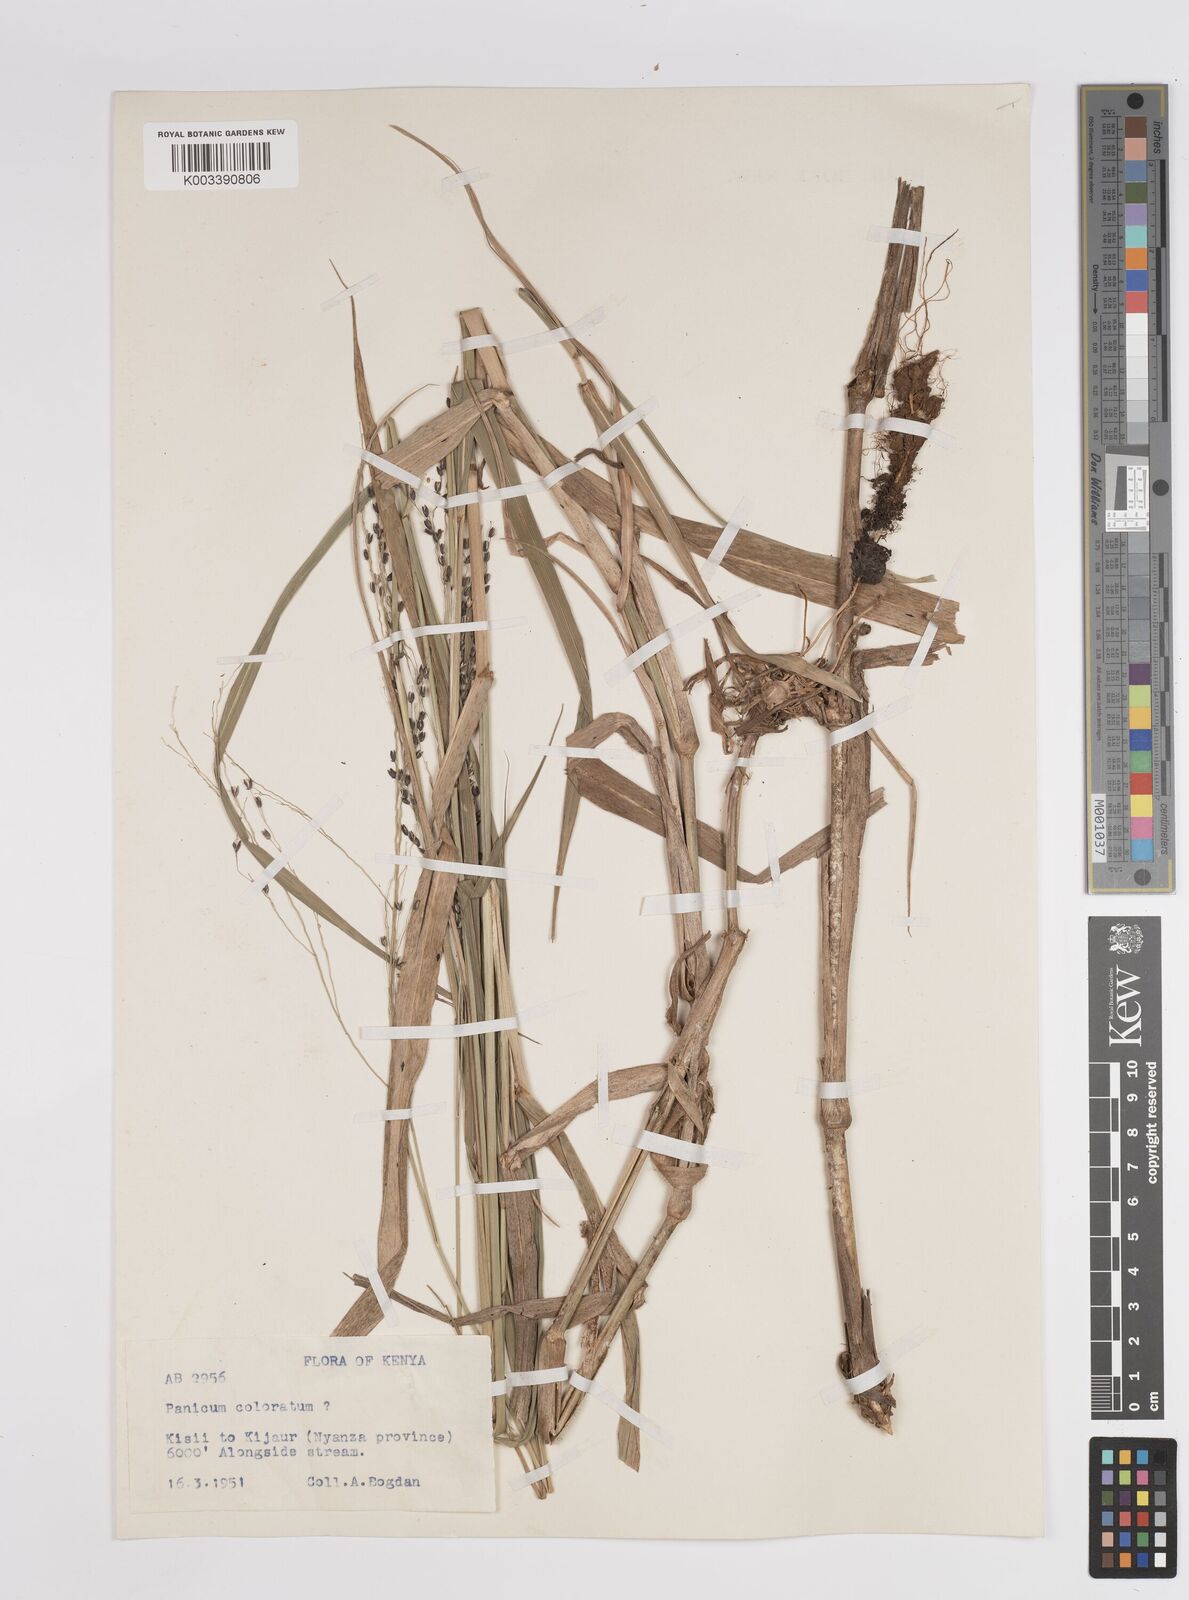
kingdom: Plantae
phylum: Tracheophyta
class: Liliopsida
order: Poales
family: Poaceae
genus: Panicum
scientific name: Panicum coloratum
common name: Kleingrass
